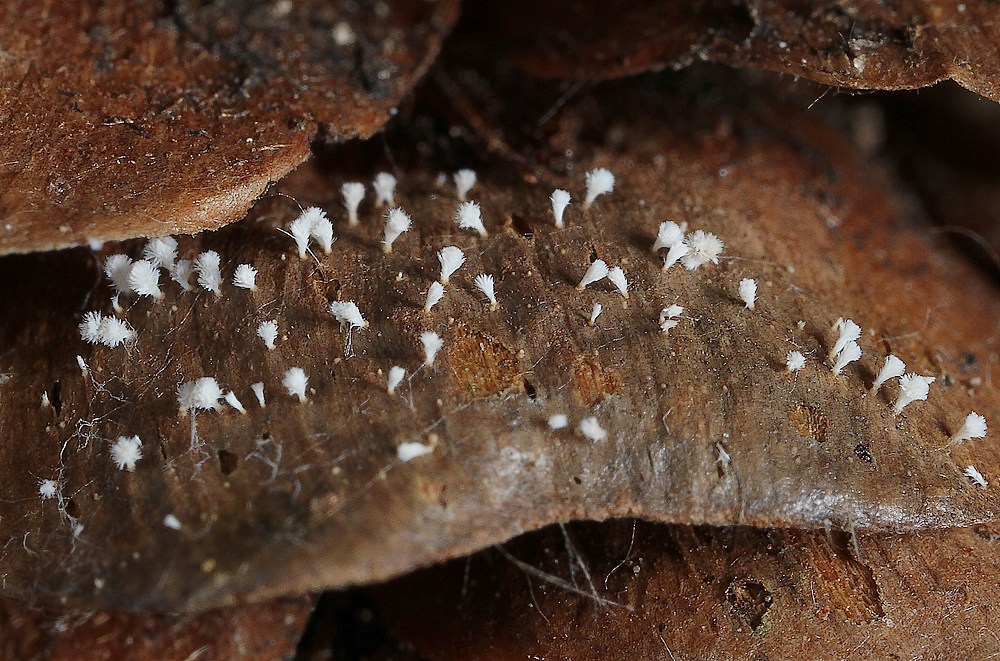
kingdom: Fungi
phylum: Ascomycota
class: Leotiomycetes
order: Helotiales
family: Lachnaceae
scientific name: Lachnaceae
